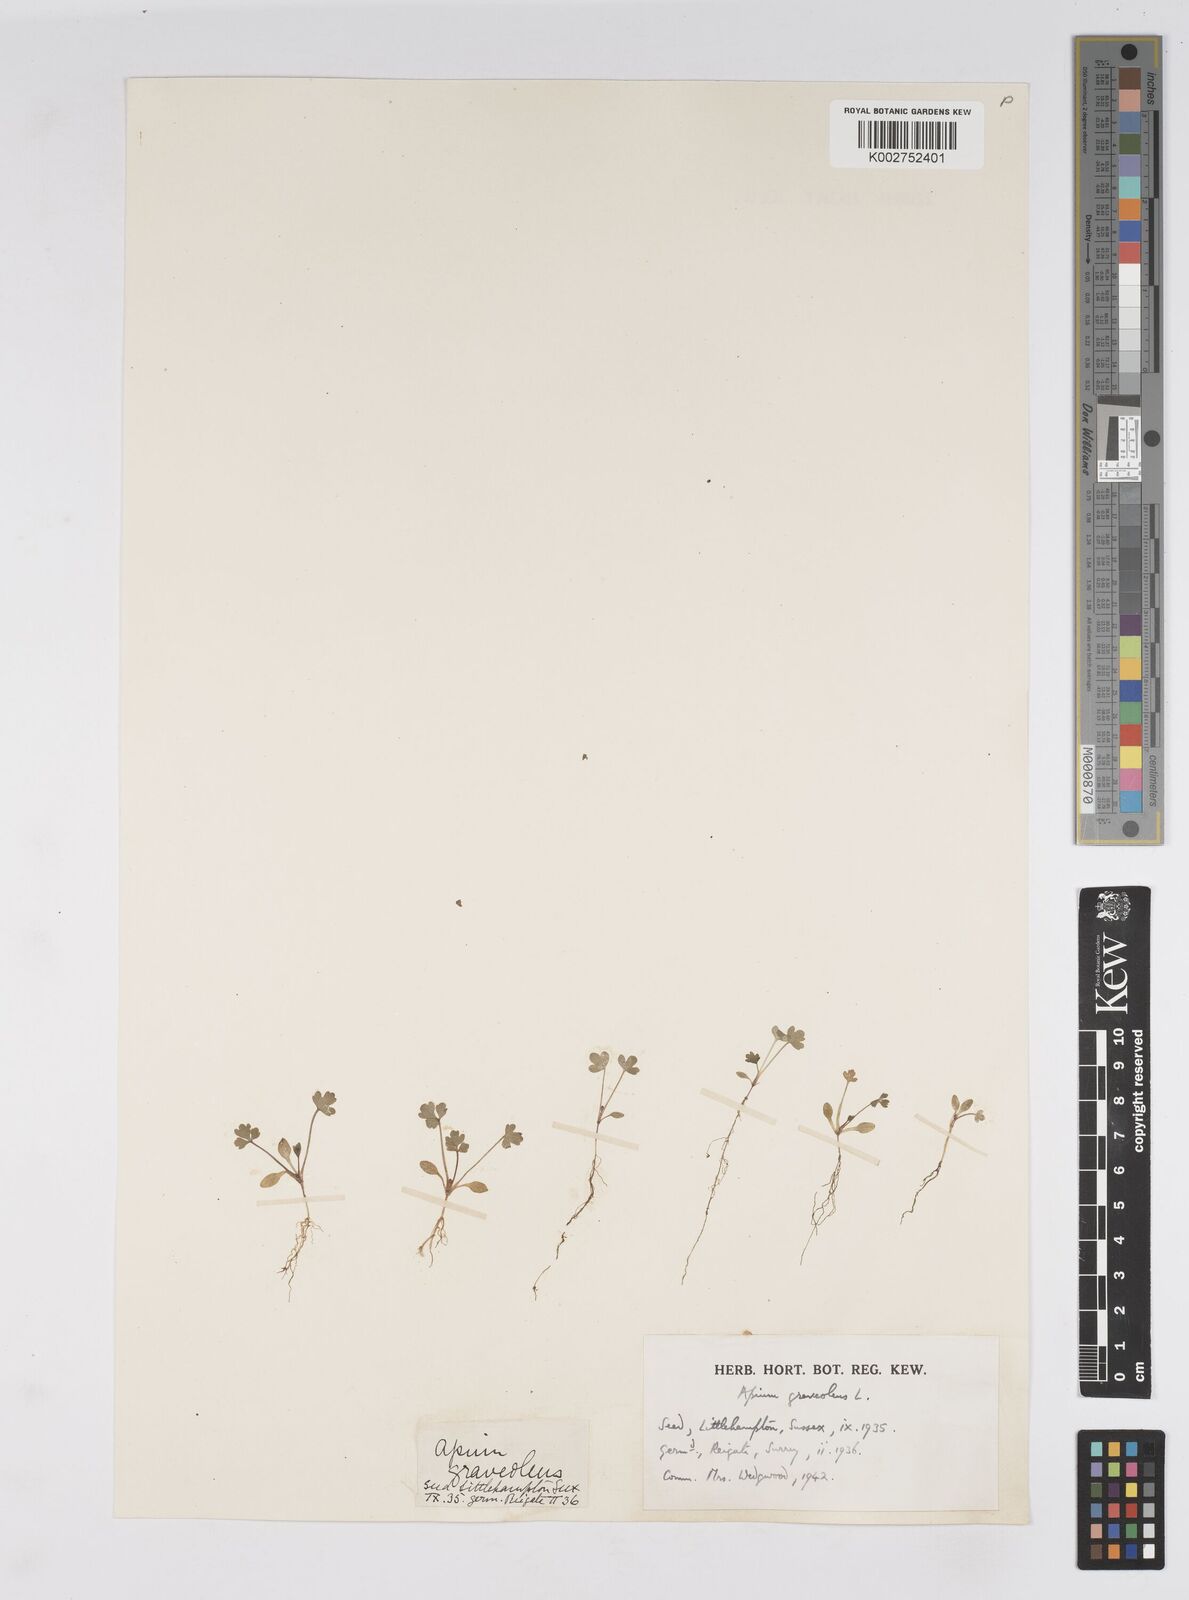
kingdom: Plantae
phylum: Tracheophyta
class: Magnoliopsida
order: Apiales
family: Apiaceae
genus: Apium
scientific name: Apium graveolens
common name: Wild celery
